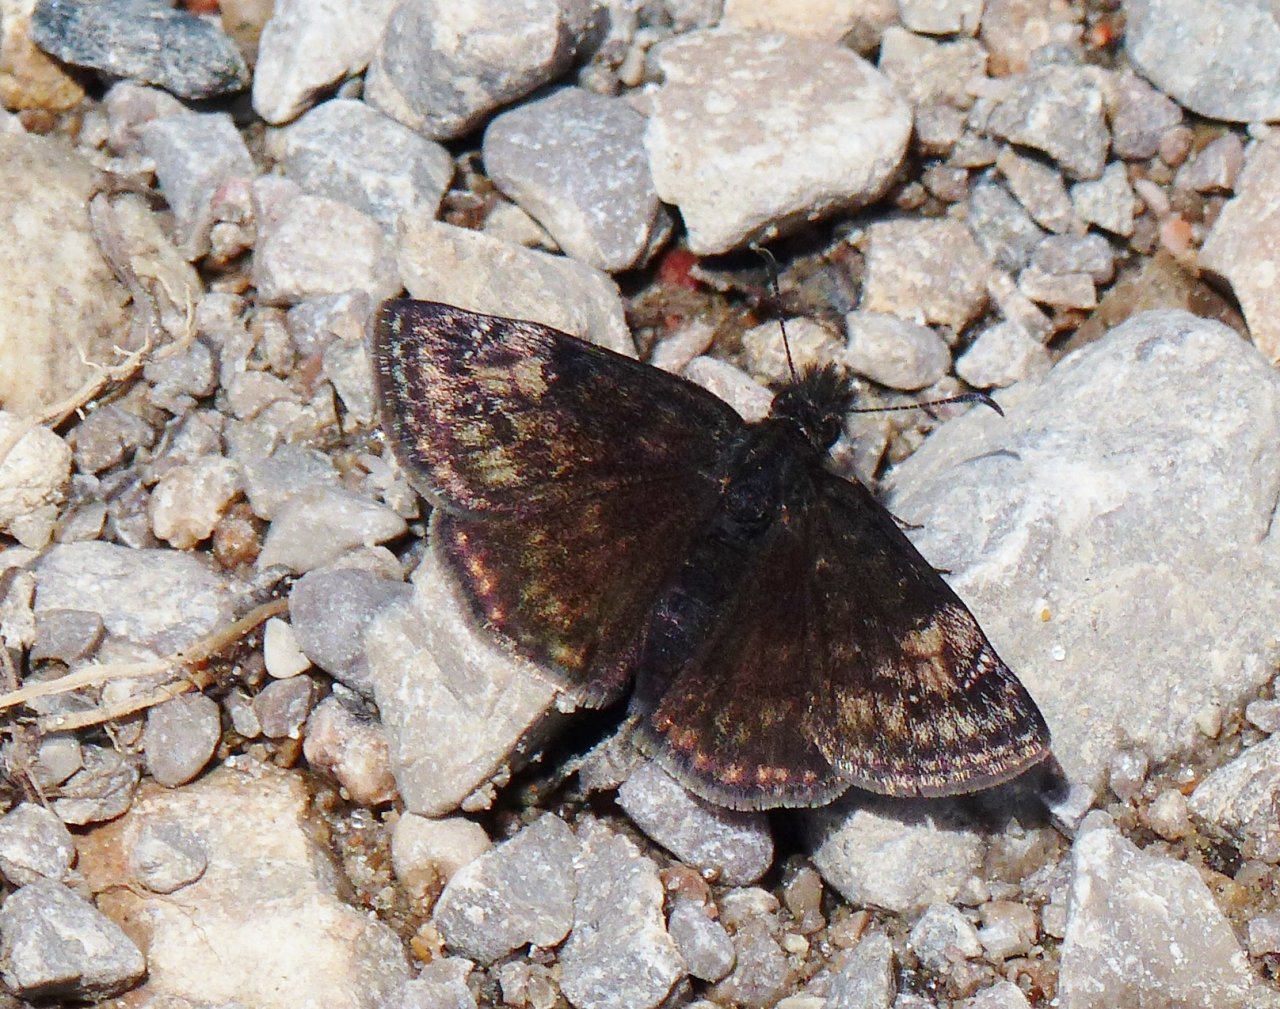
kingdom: Animalia
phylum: Arthropoda
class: Insecta
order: Lepidoptera
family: Hesperiidae
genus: Gesta
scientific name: Gesta
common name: Columbine Duskywing
